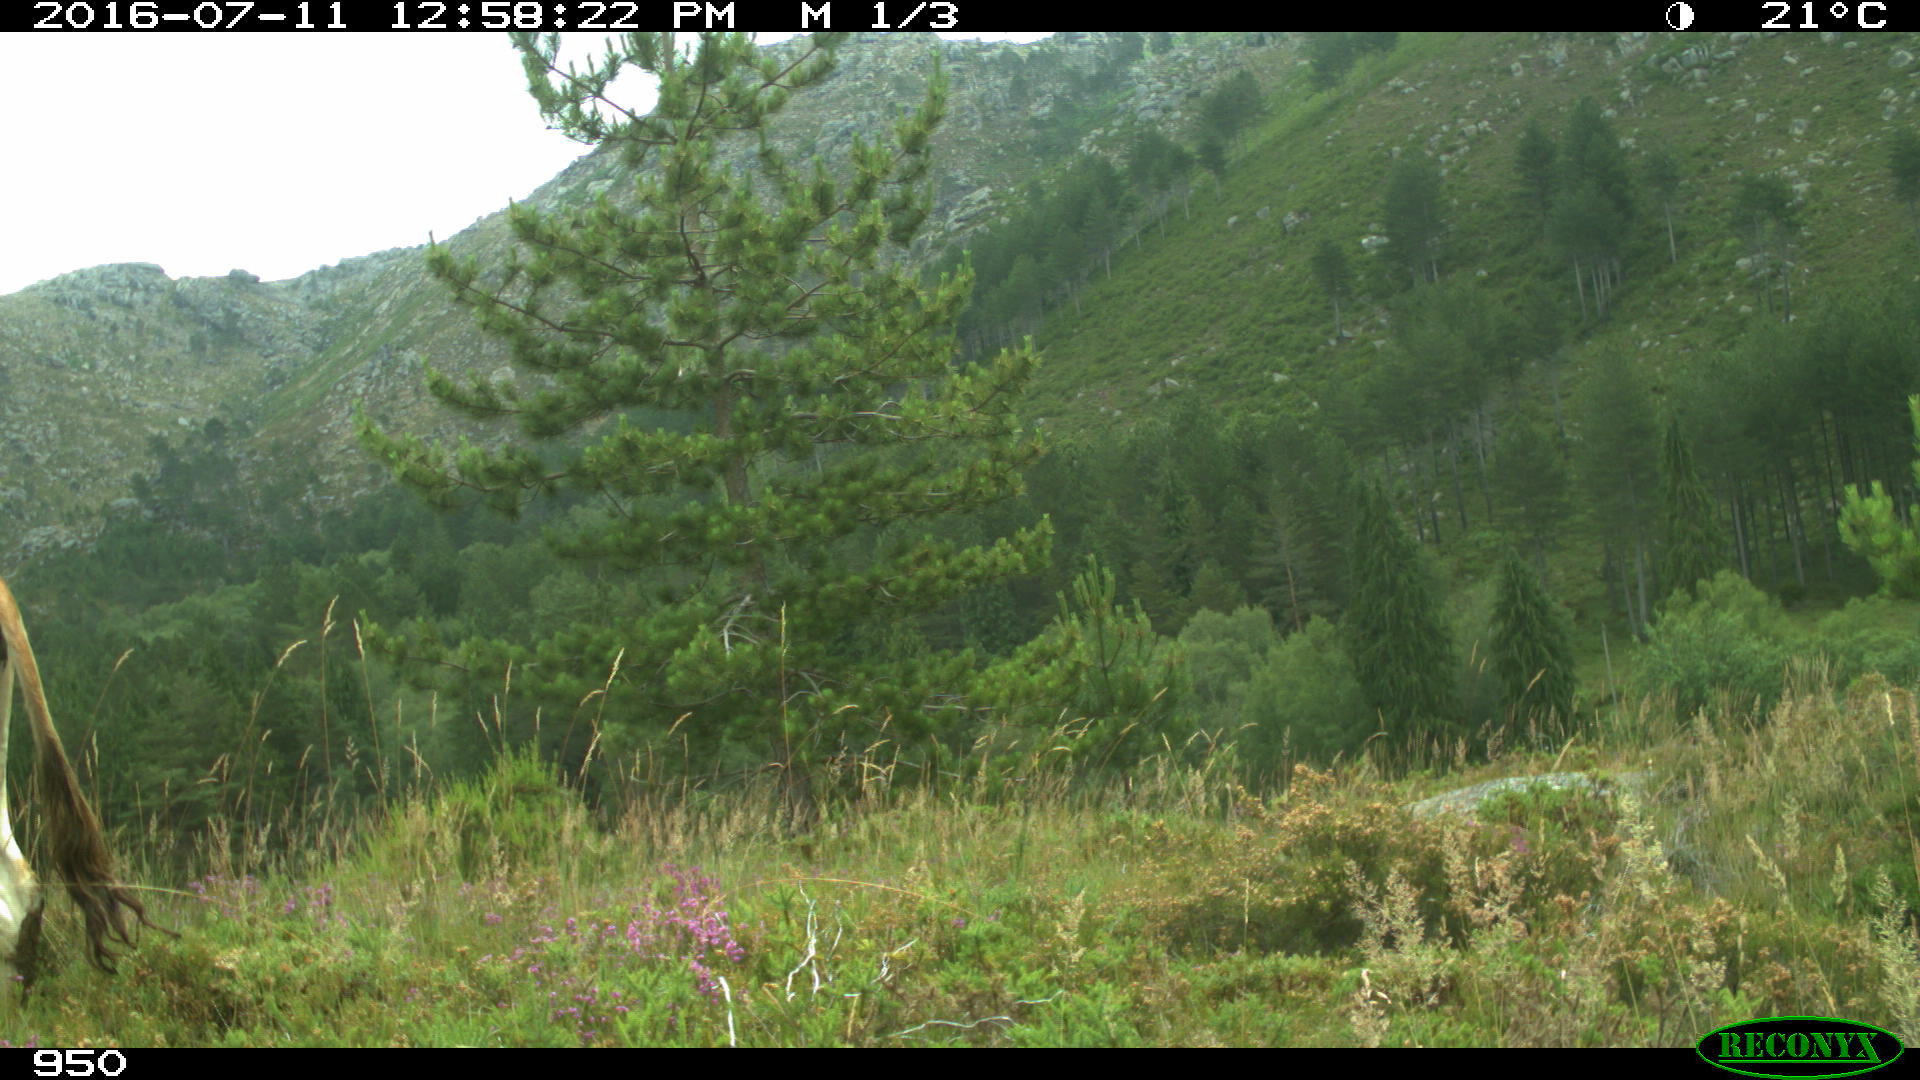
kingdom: Animalia
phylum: Chordata
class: Mammalia
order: Artiodactyla
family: Bovidae
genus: Bos
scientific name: Bos taurus
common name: Domesticated cattle
